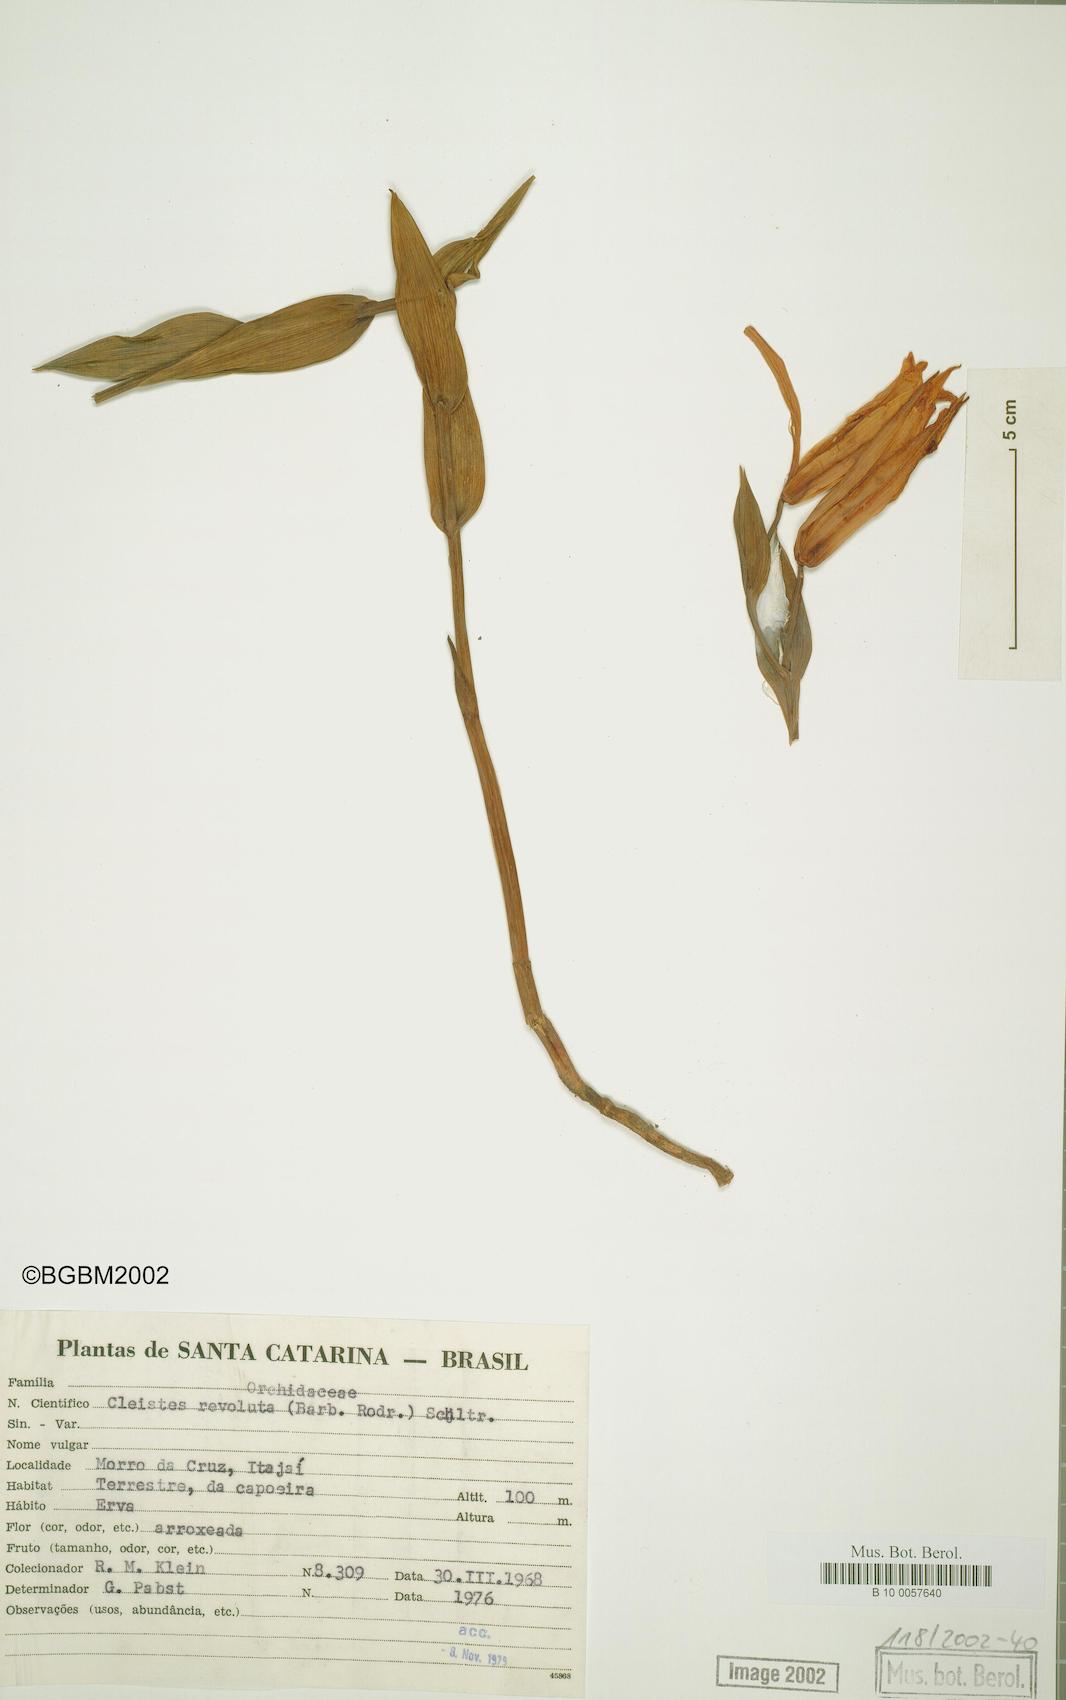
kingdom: Plantae
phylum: Tracheophyta
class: Liliopsida
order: Asparagales
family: Orchidaceae
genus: Cleistes
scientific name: Cleistes libonii
